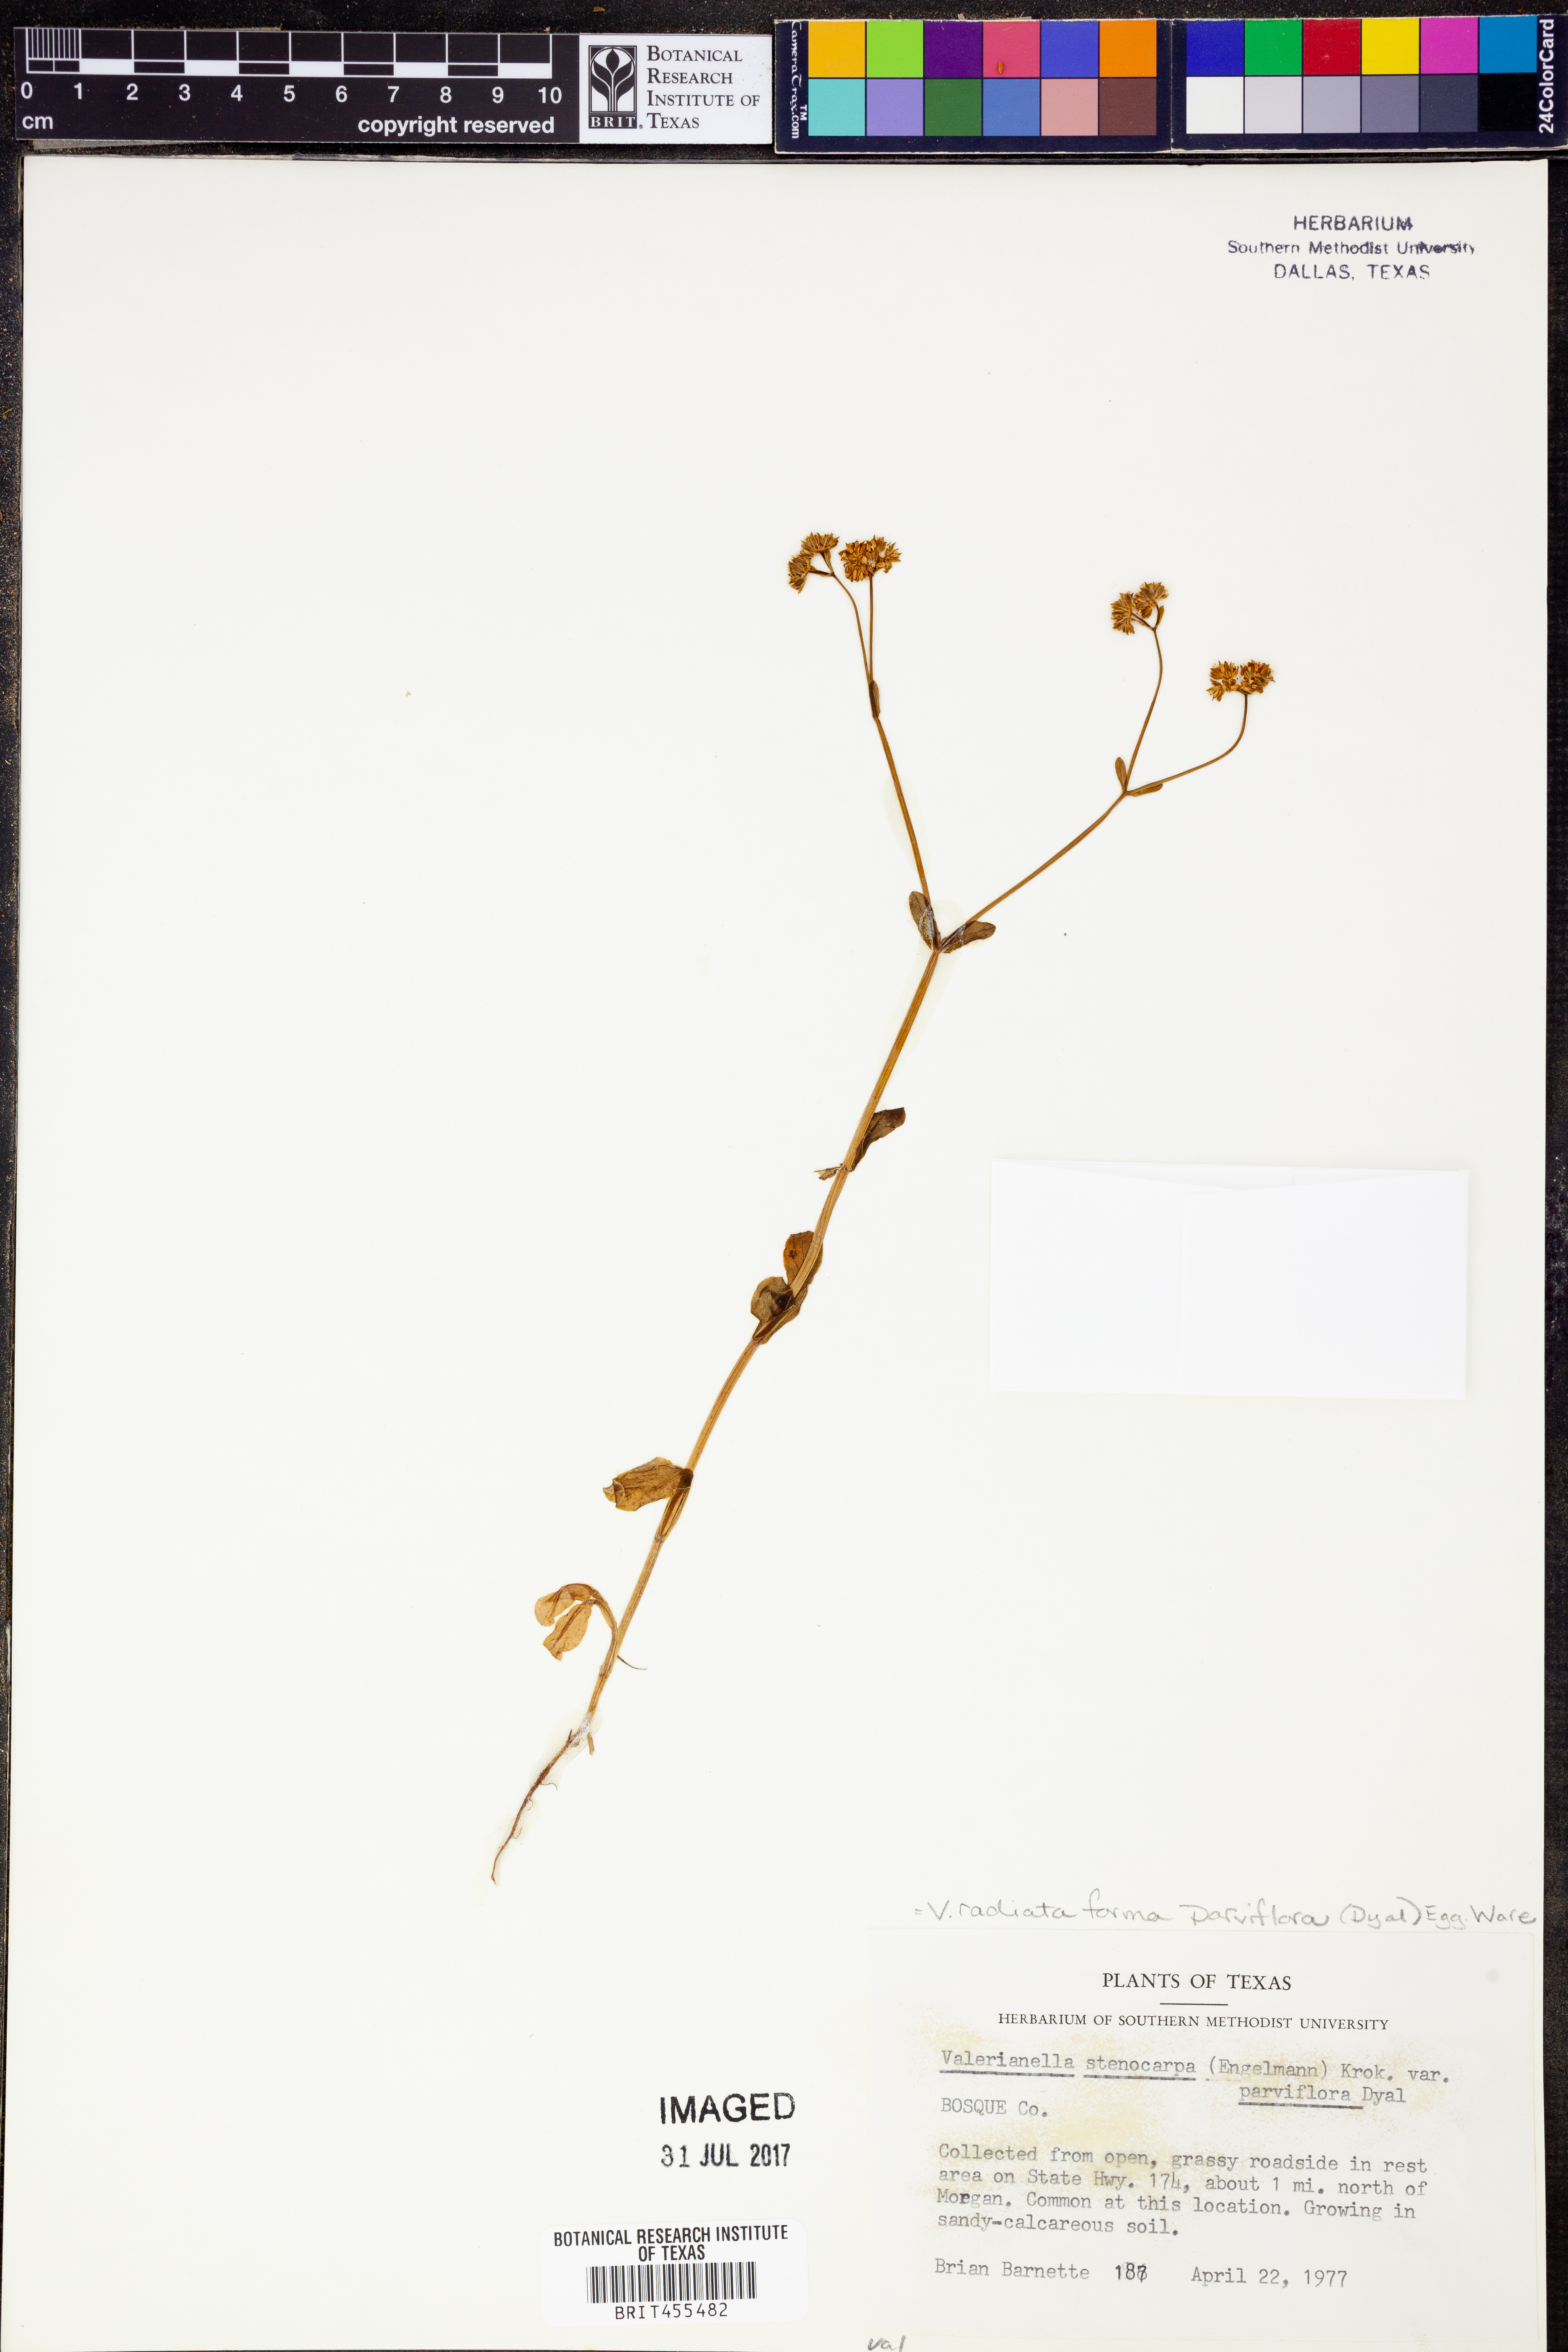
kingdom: Plantae
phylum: Tracheophyta
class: Magnoliopsida
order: Dipsacales
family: Caprifoliaceae
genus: Valerianella
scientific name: Valerianella radiata
